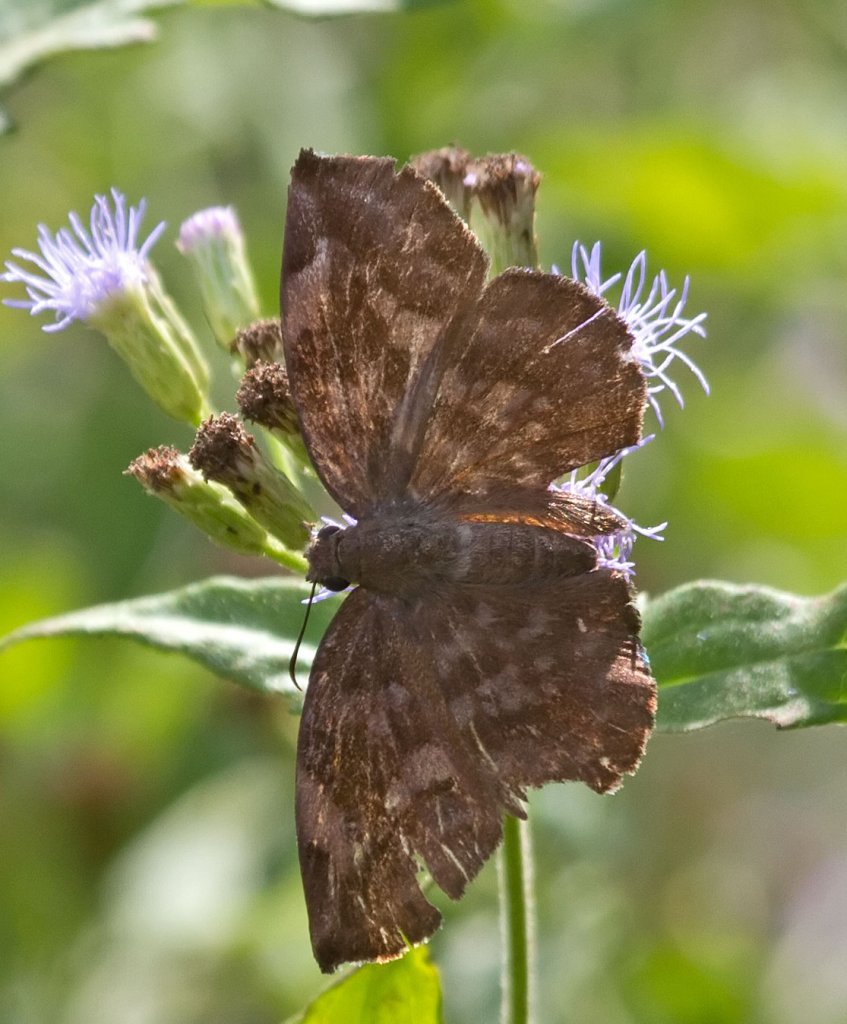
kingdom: Animalia
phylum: Arthropoda
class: Insecta
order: Lepidoptera
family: Hesperiidae
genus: Achlyodes
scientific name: Achlyodes thraso
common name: Sickle-winged Skipper
